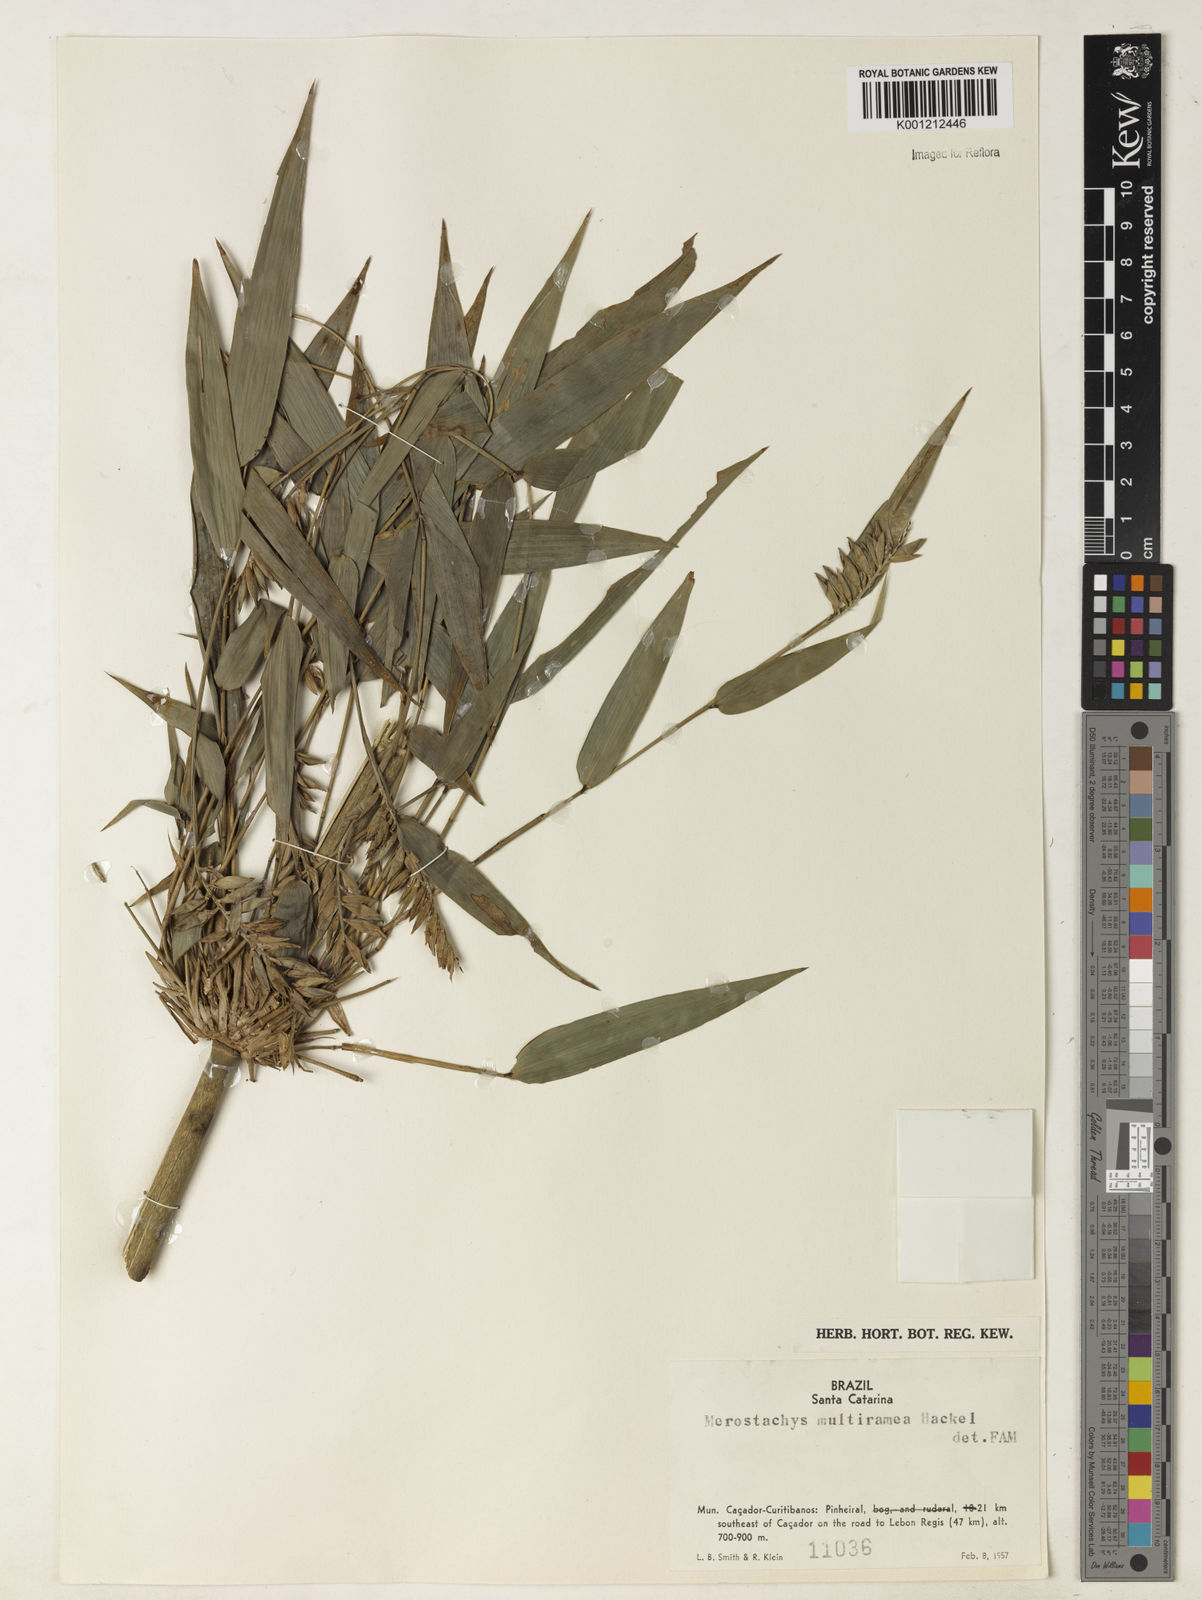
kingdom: Plantae
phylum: Tracheophyta
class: Liliopsida
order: Poales
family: Poaceae
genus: Merostachys
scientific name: Merostachys multiramea
